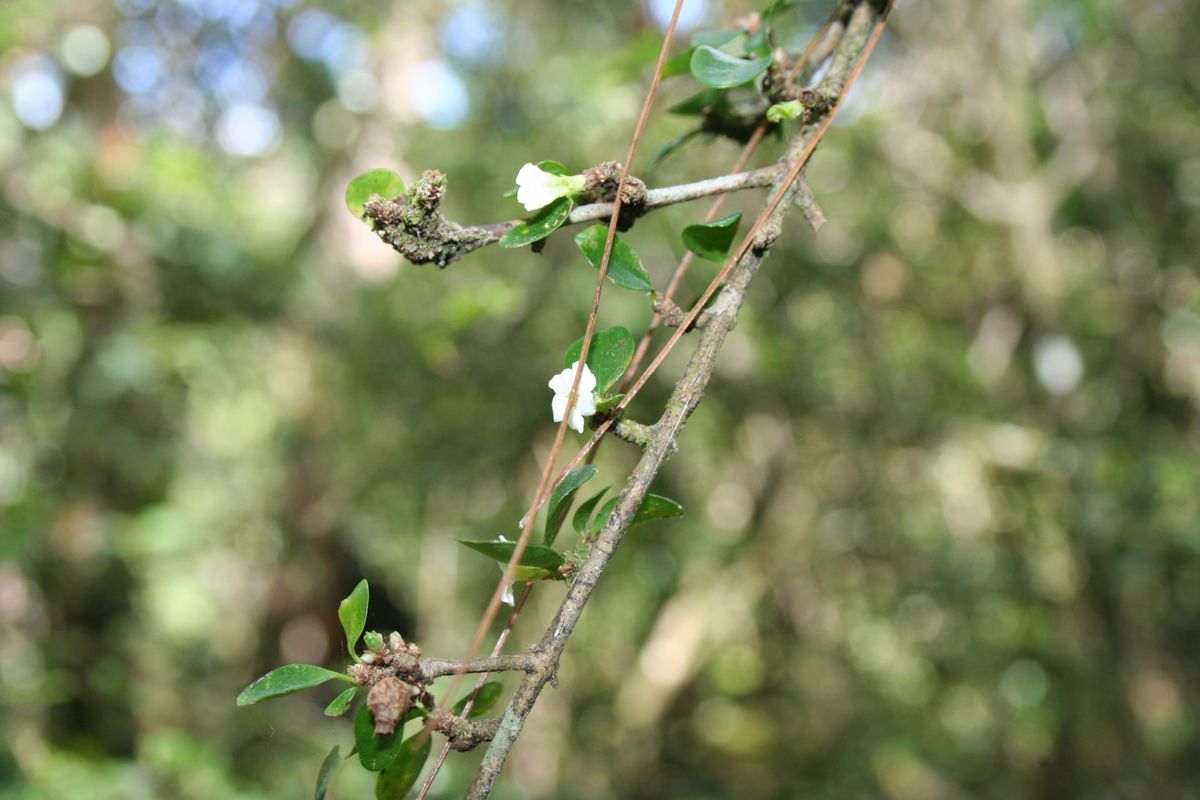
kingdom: Plantae
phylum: Tracheophyta
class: Magnoliopsida
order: Gentianales
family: Rubiaceae
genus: Randia
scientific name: Randia aculeata
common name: Inkberry
